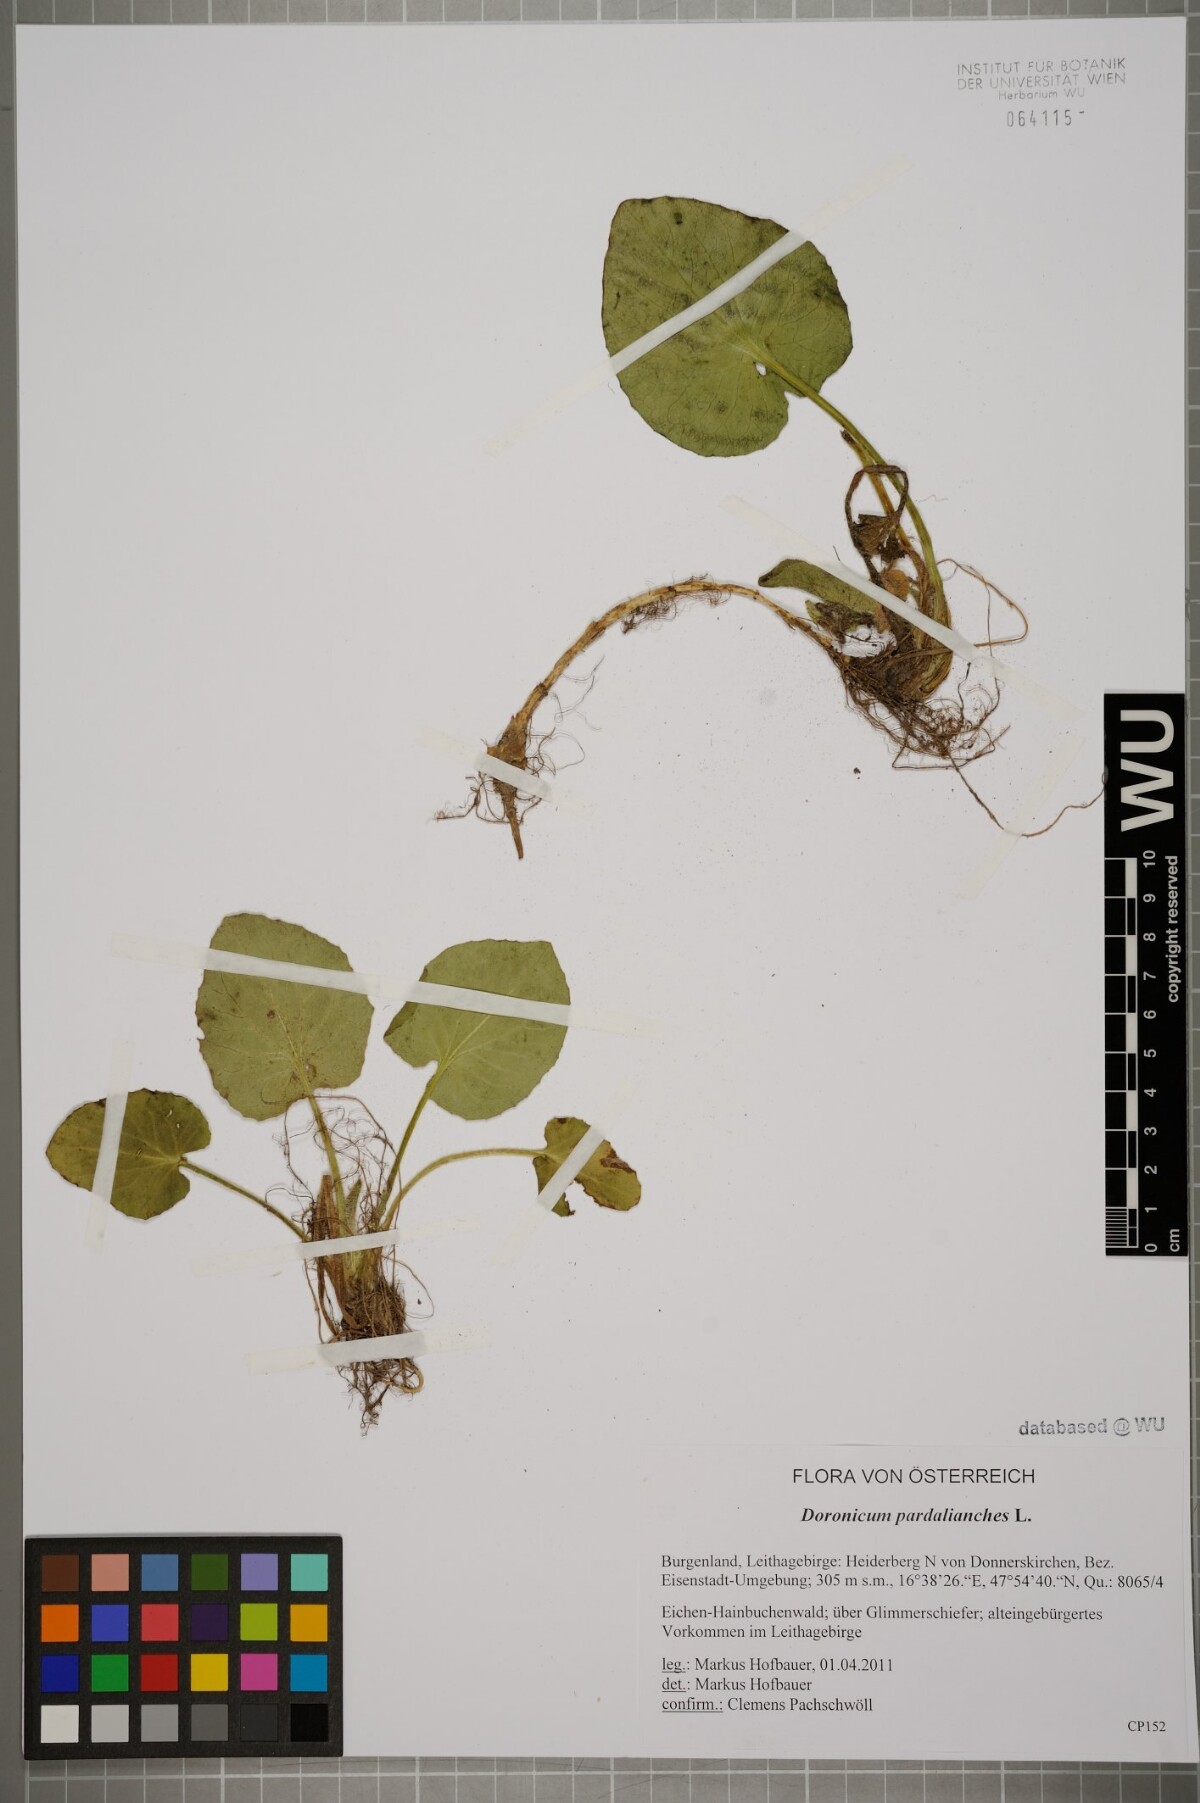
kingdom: Plantae
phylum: Tracheophyta
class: Magnoliopsida
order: Asterales
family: Asteraceae
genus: Doronicum
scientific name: Doronicum pardalianches
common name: Leopard's-bane
